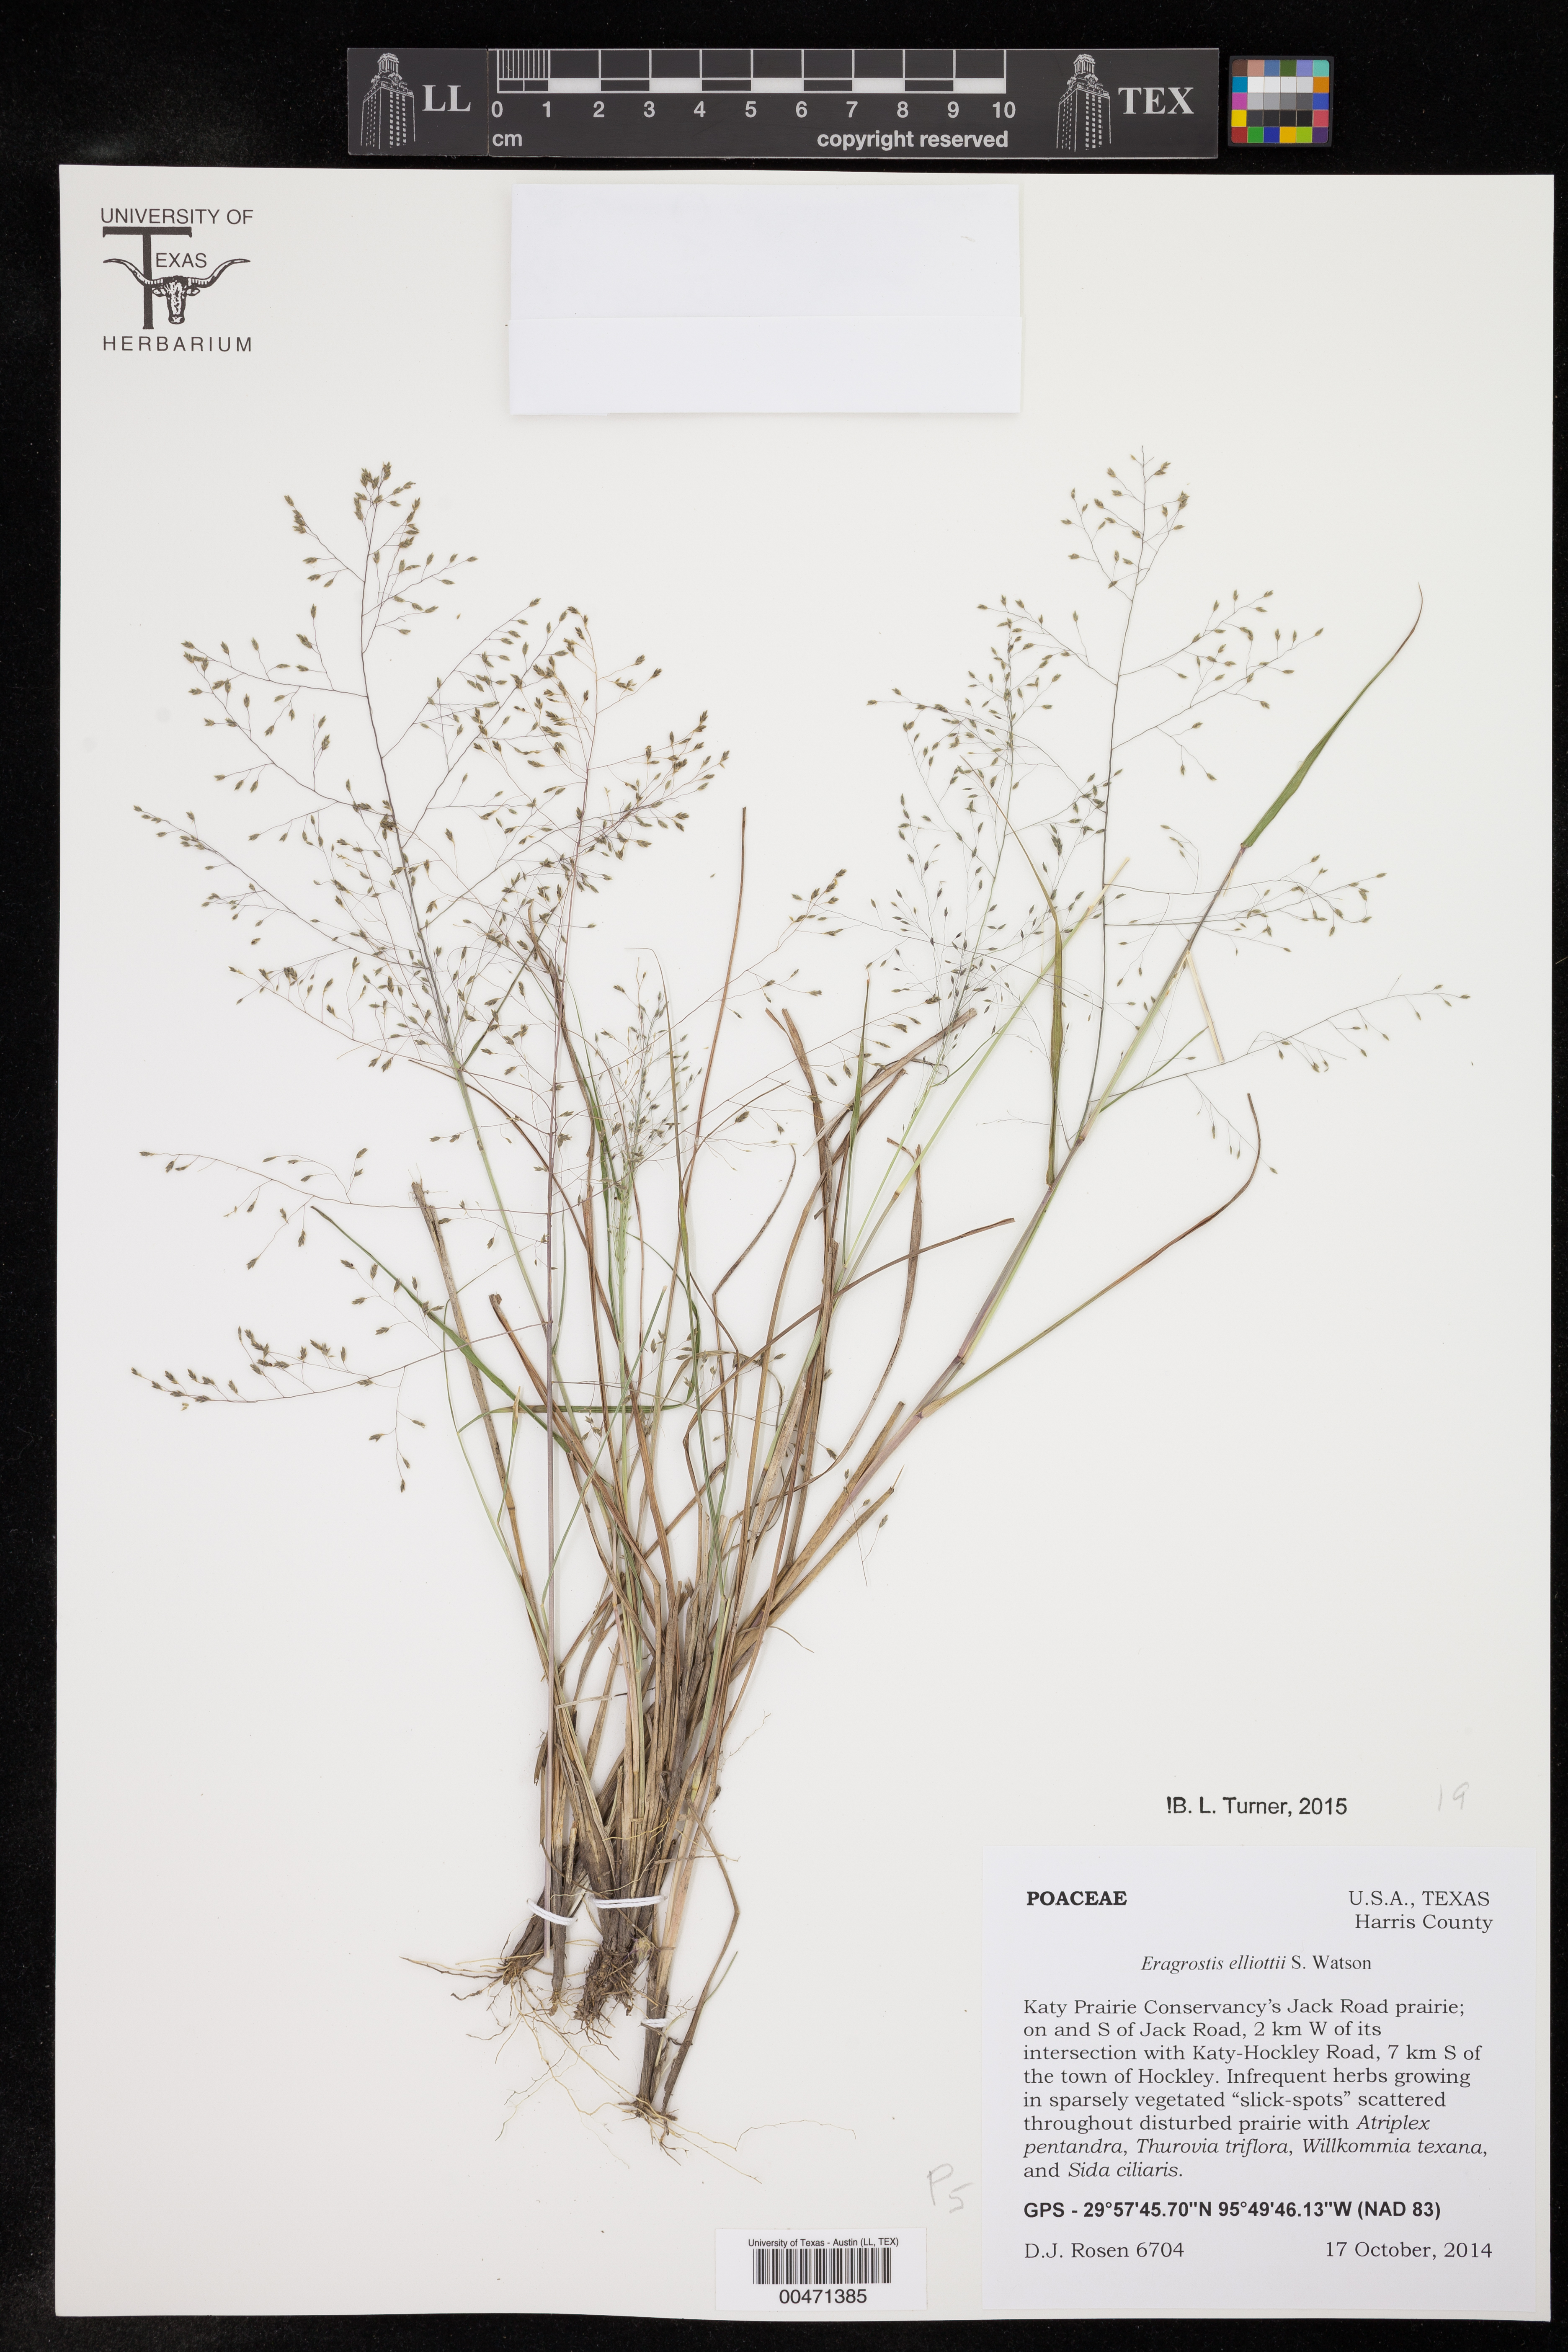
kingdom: Plantae
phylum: Tracheophyta
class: Liliopsida
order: Poales
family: Poaceae
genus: Eragrostis
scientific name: Eragrostis elliottii
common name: Elliott's love grass
